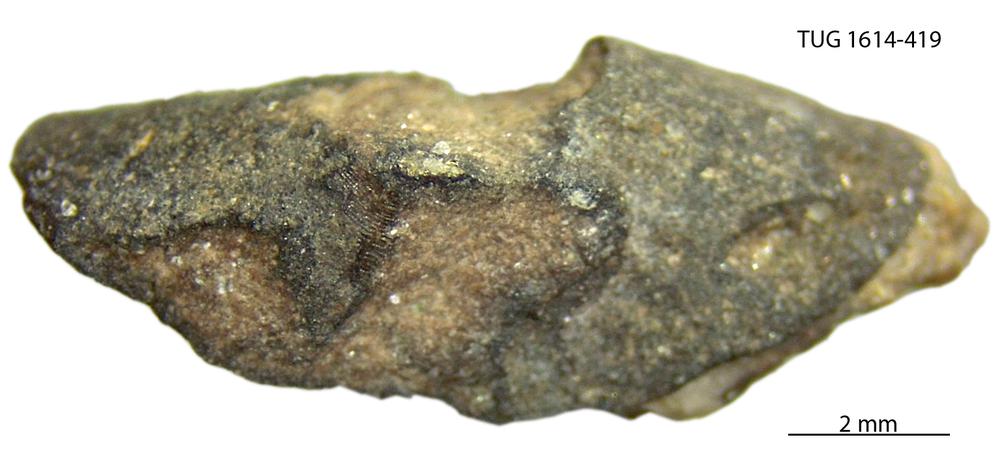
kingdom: Animalia
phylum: Mollusca
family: Scenellidae
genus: Scenella
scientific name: Scenella
